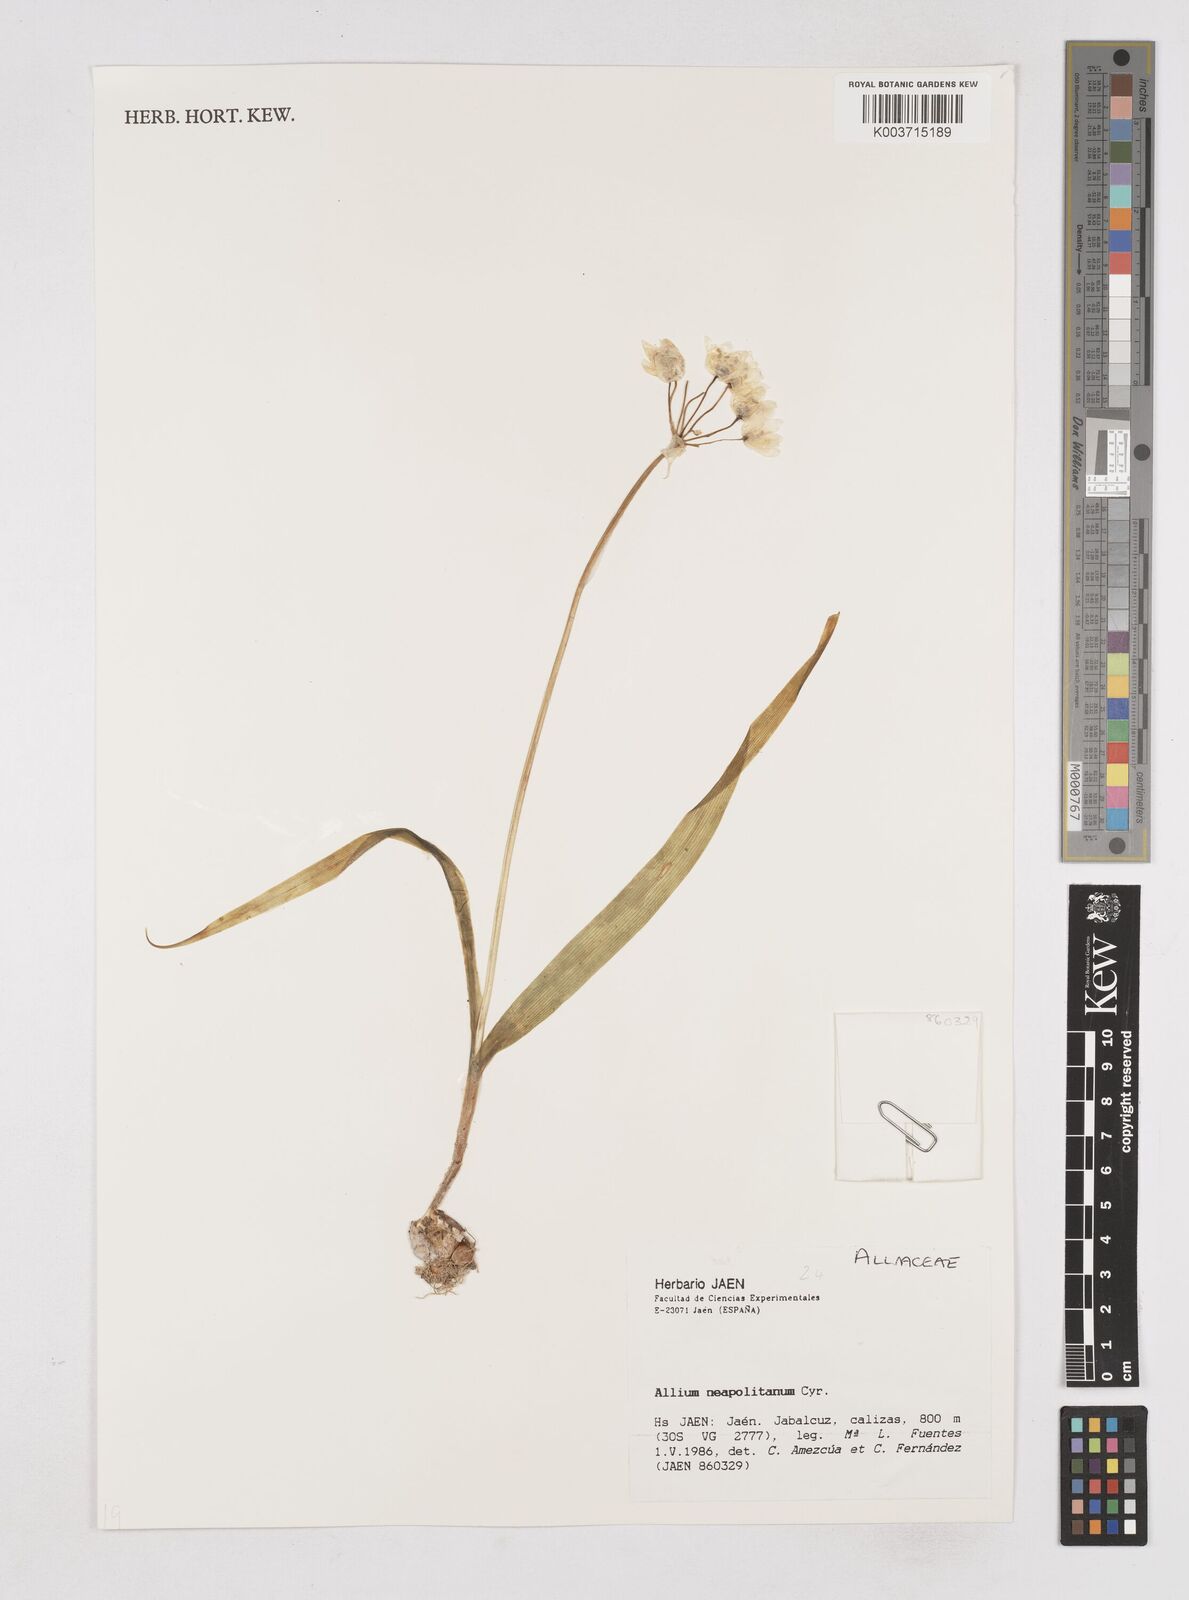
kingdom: Plantae
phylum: Tracheophyta
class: Liliopsida
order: Asparagales
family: Amaryllidaceae
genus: Allium
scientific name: Allium neapolitanum
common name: Neapolitan garlic
